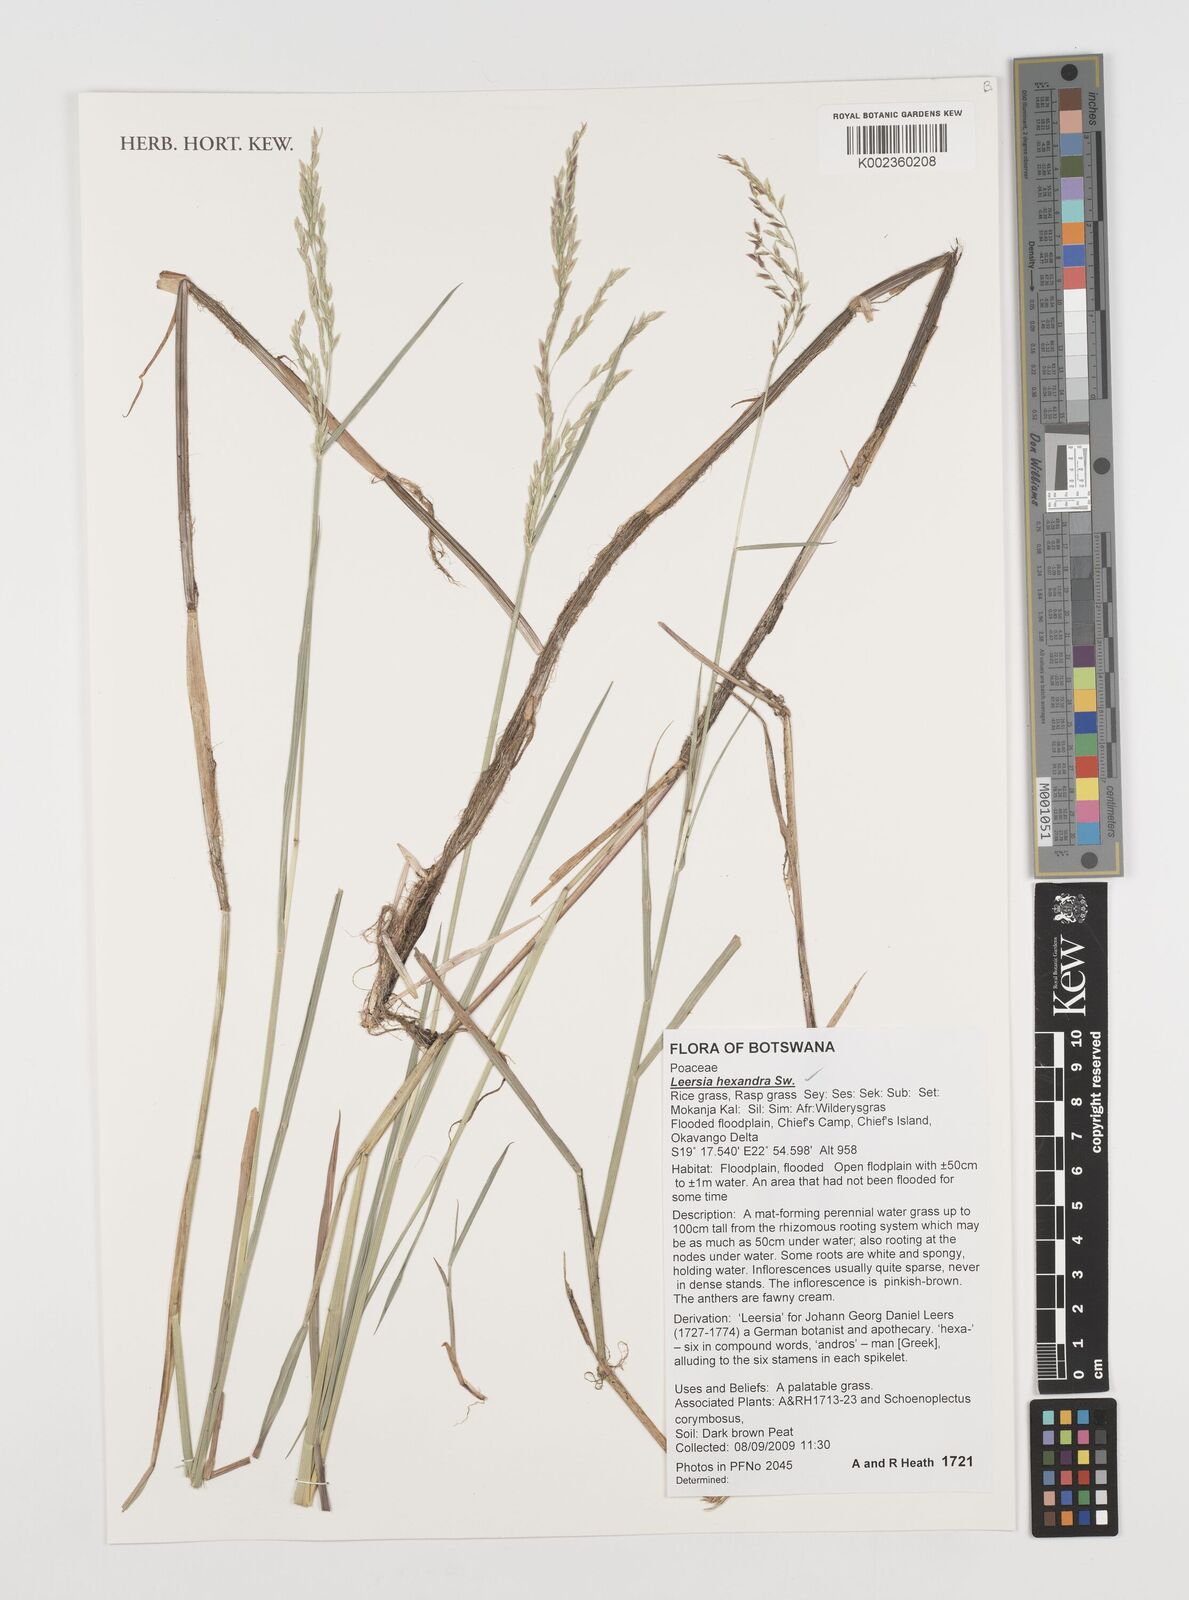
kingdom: Plantae
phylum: Tracheophyta
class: Liliopsida
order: Poales
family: Poaceae
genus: Leersia
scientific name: Leersia hexandra
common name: Southern cut grass
